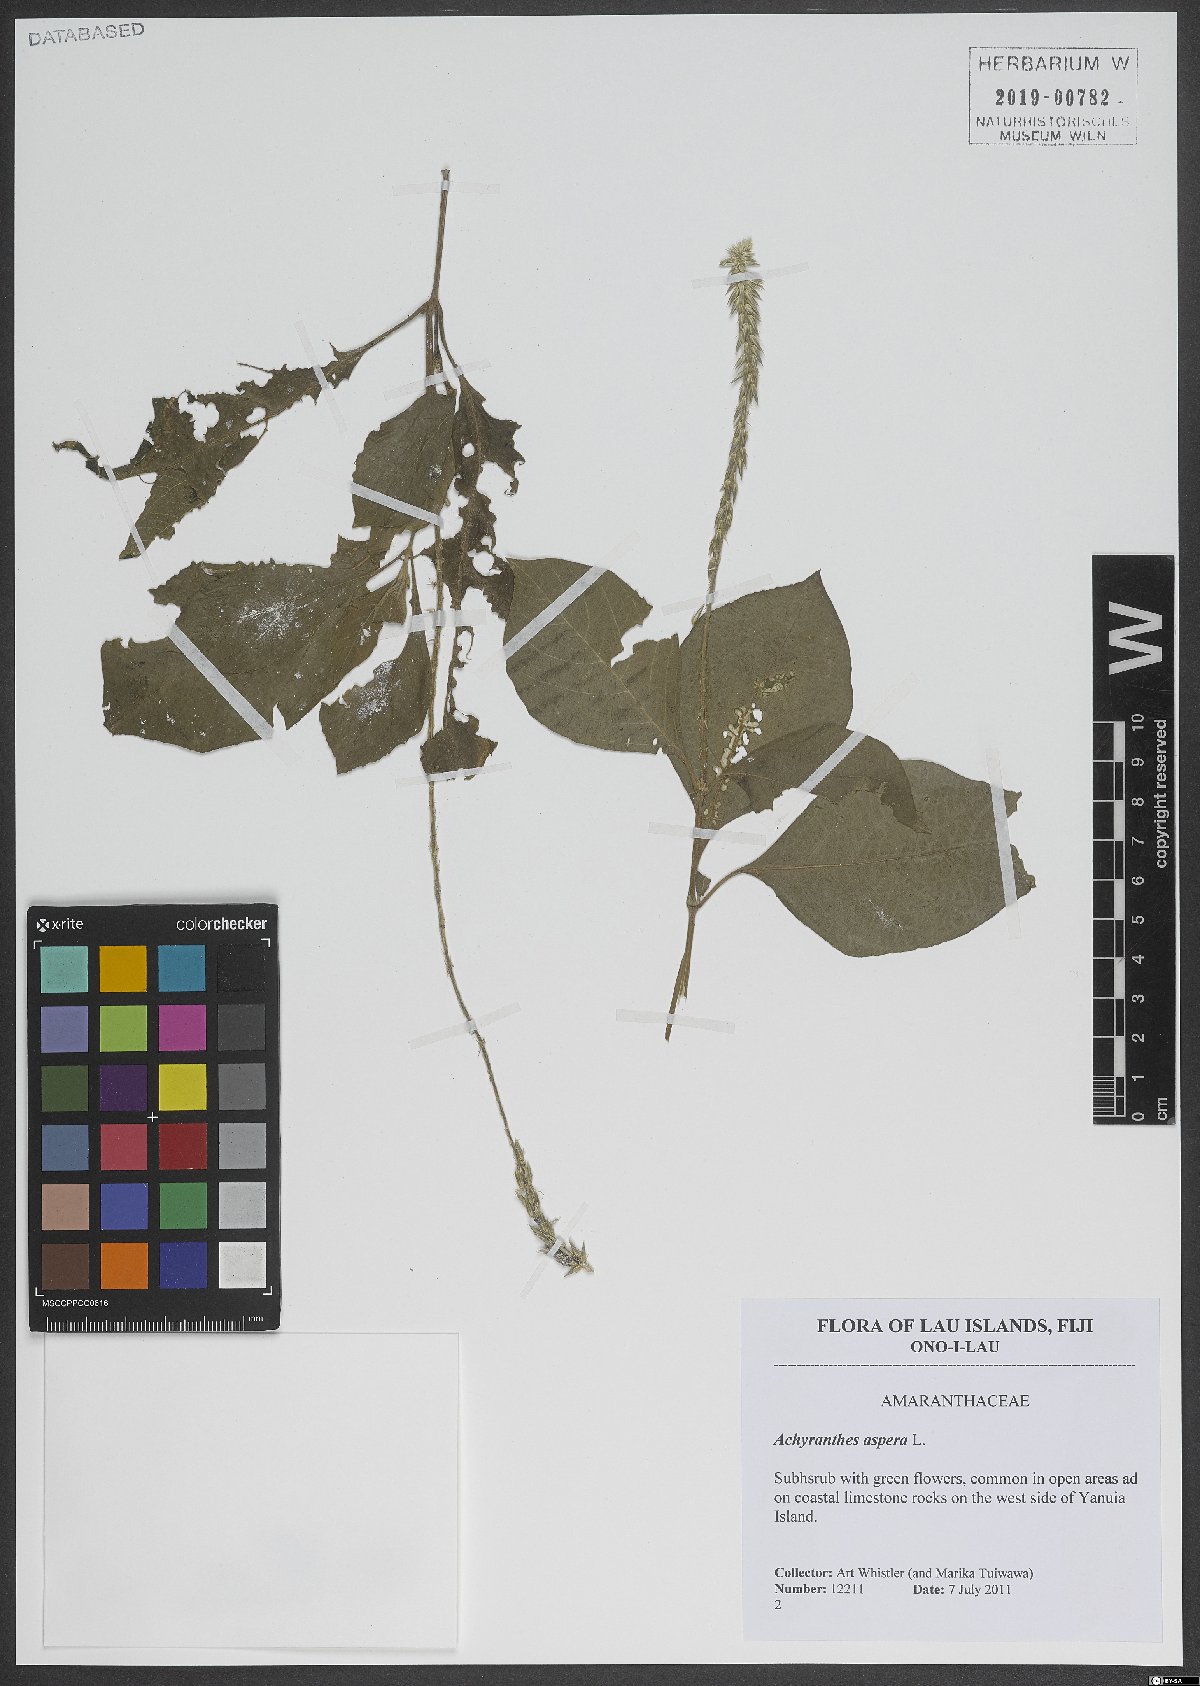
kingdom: Plantae
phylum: Tracheophyta
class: Magnoliopsida
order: Caryophyllales
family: Amaranthaceae
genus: Achyranthes
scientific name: Achyranthes bidentata
